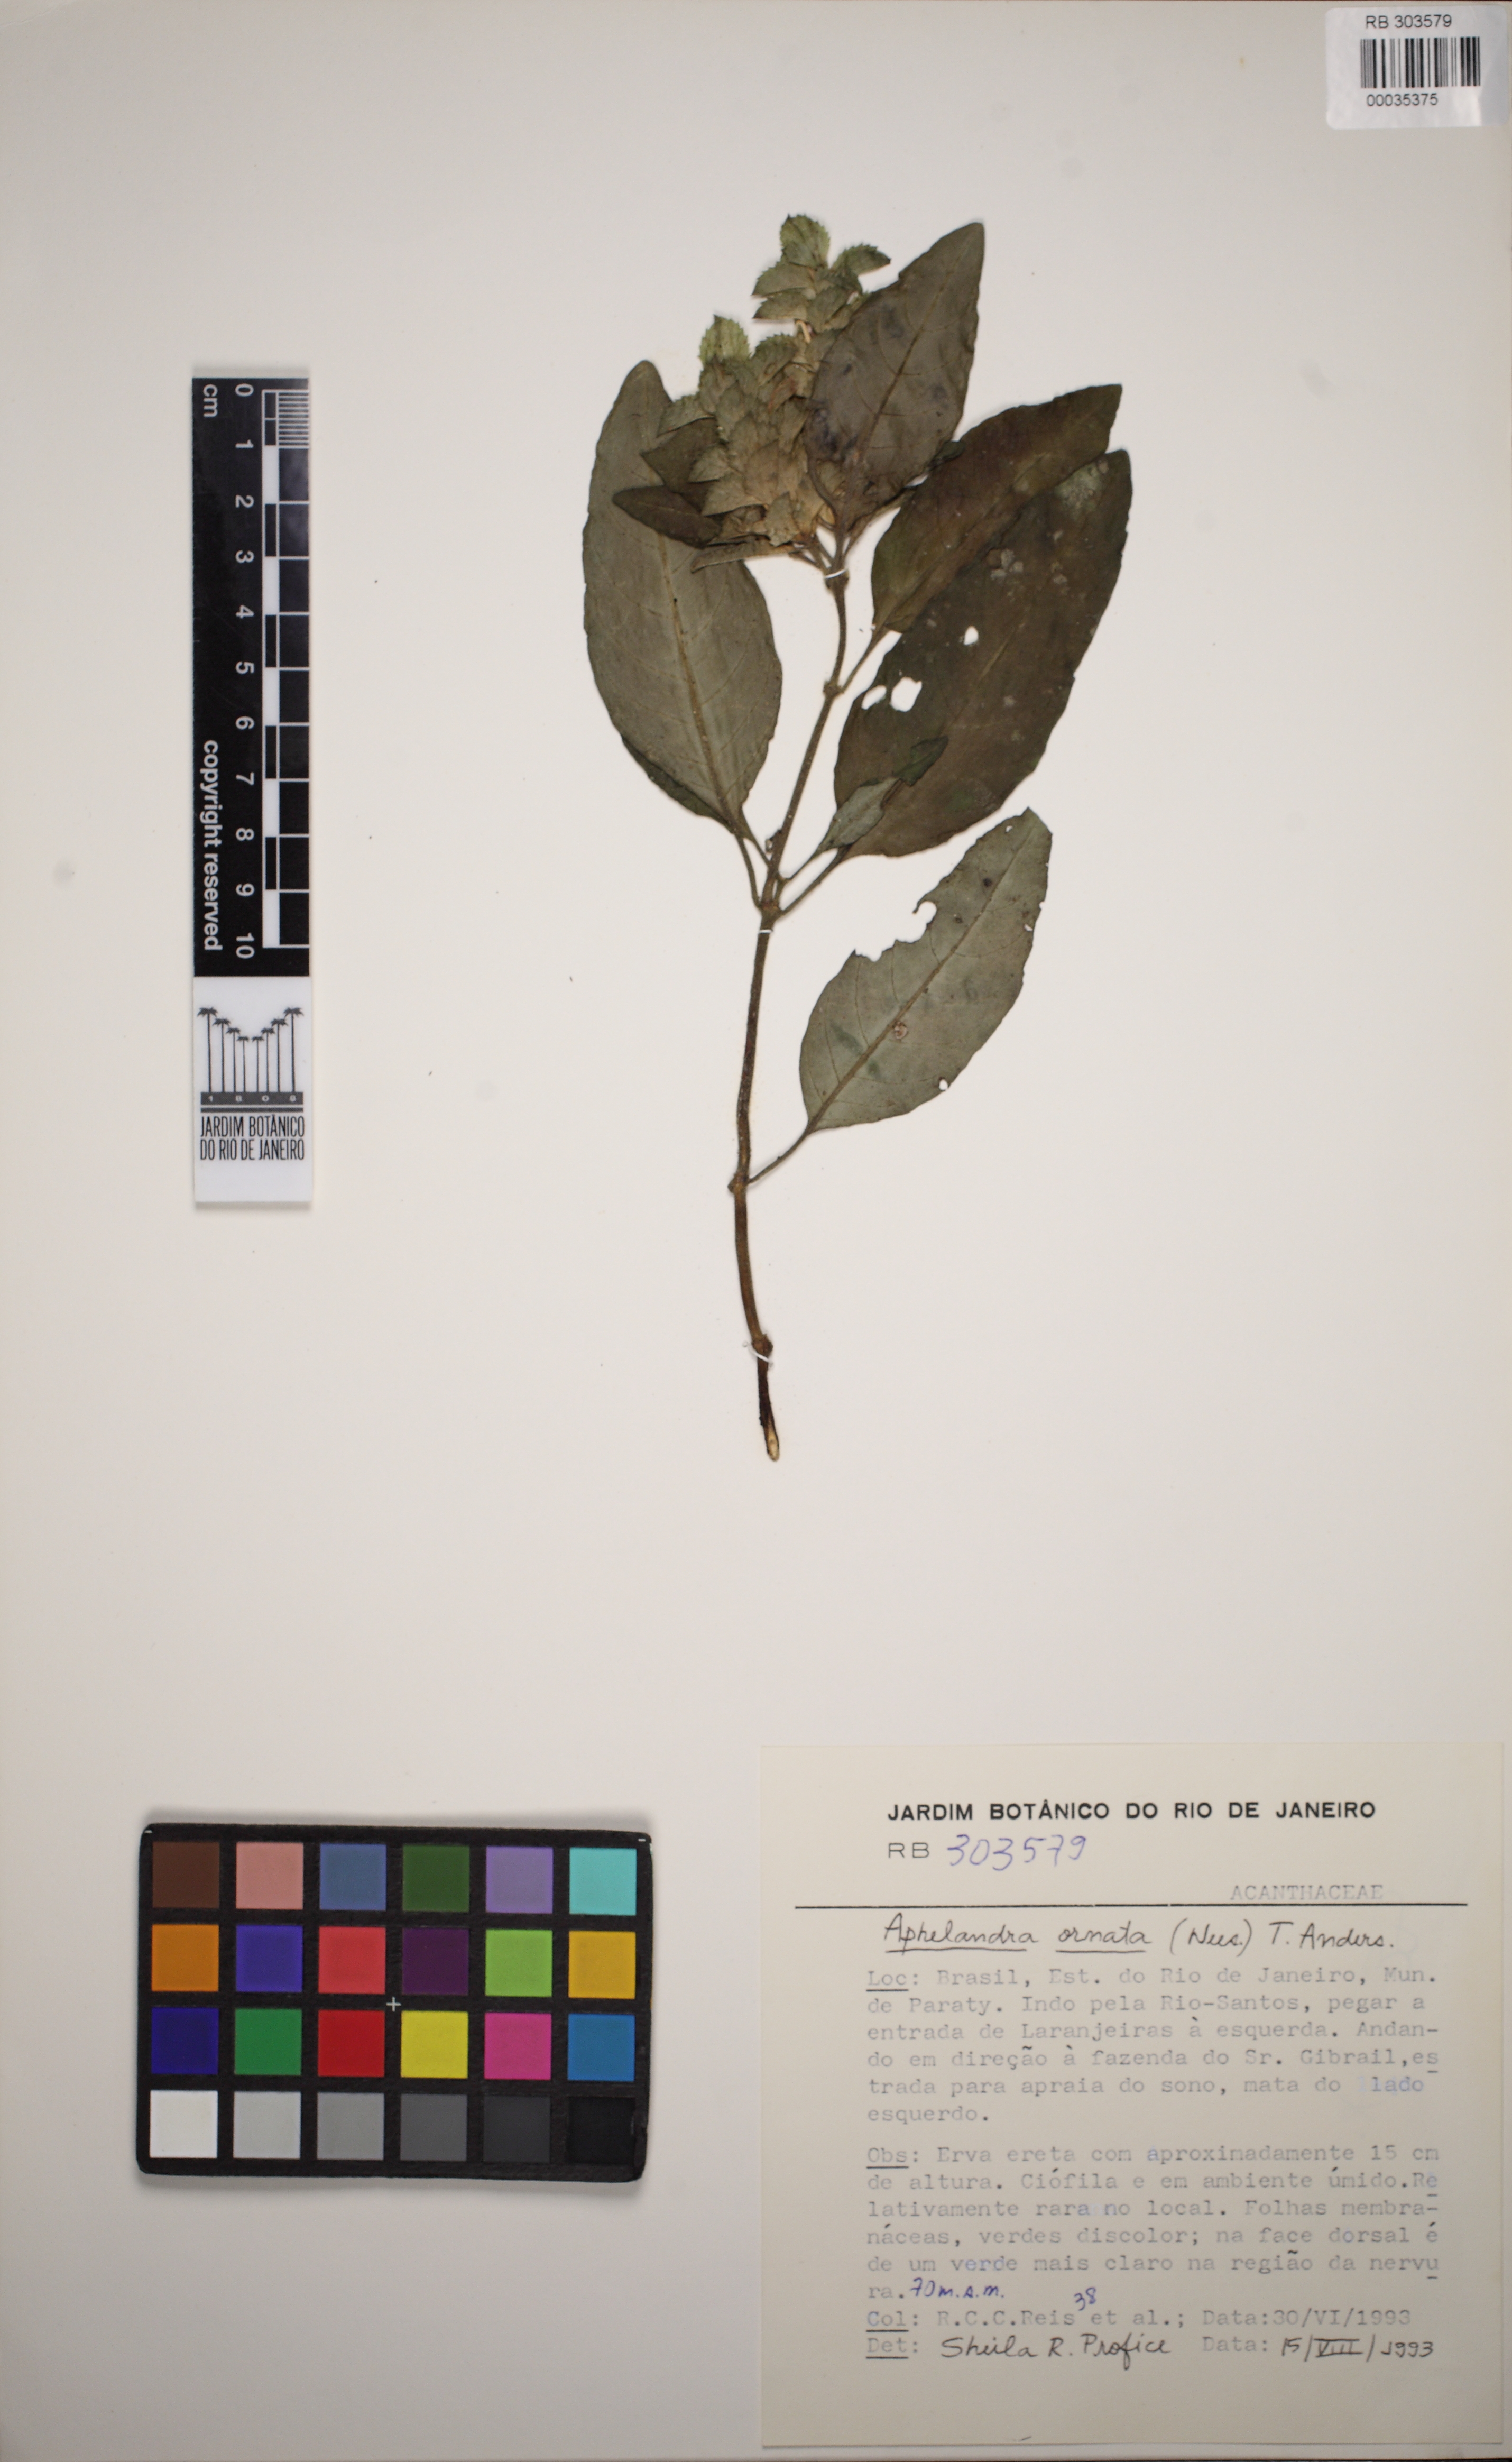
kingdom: Plantae
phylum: Tracheophyta
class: Magnoliopsida
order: Lamiales
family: Acanthaceae
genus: Aphelandra
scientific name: Aphelandra ornata
